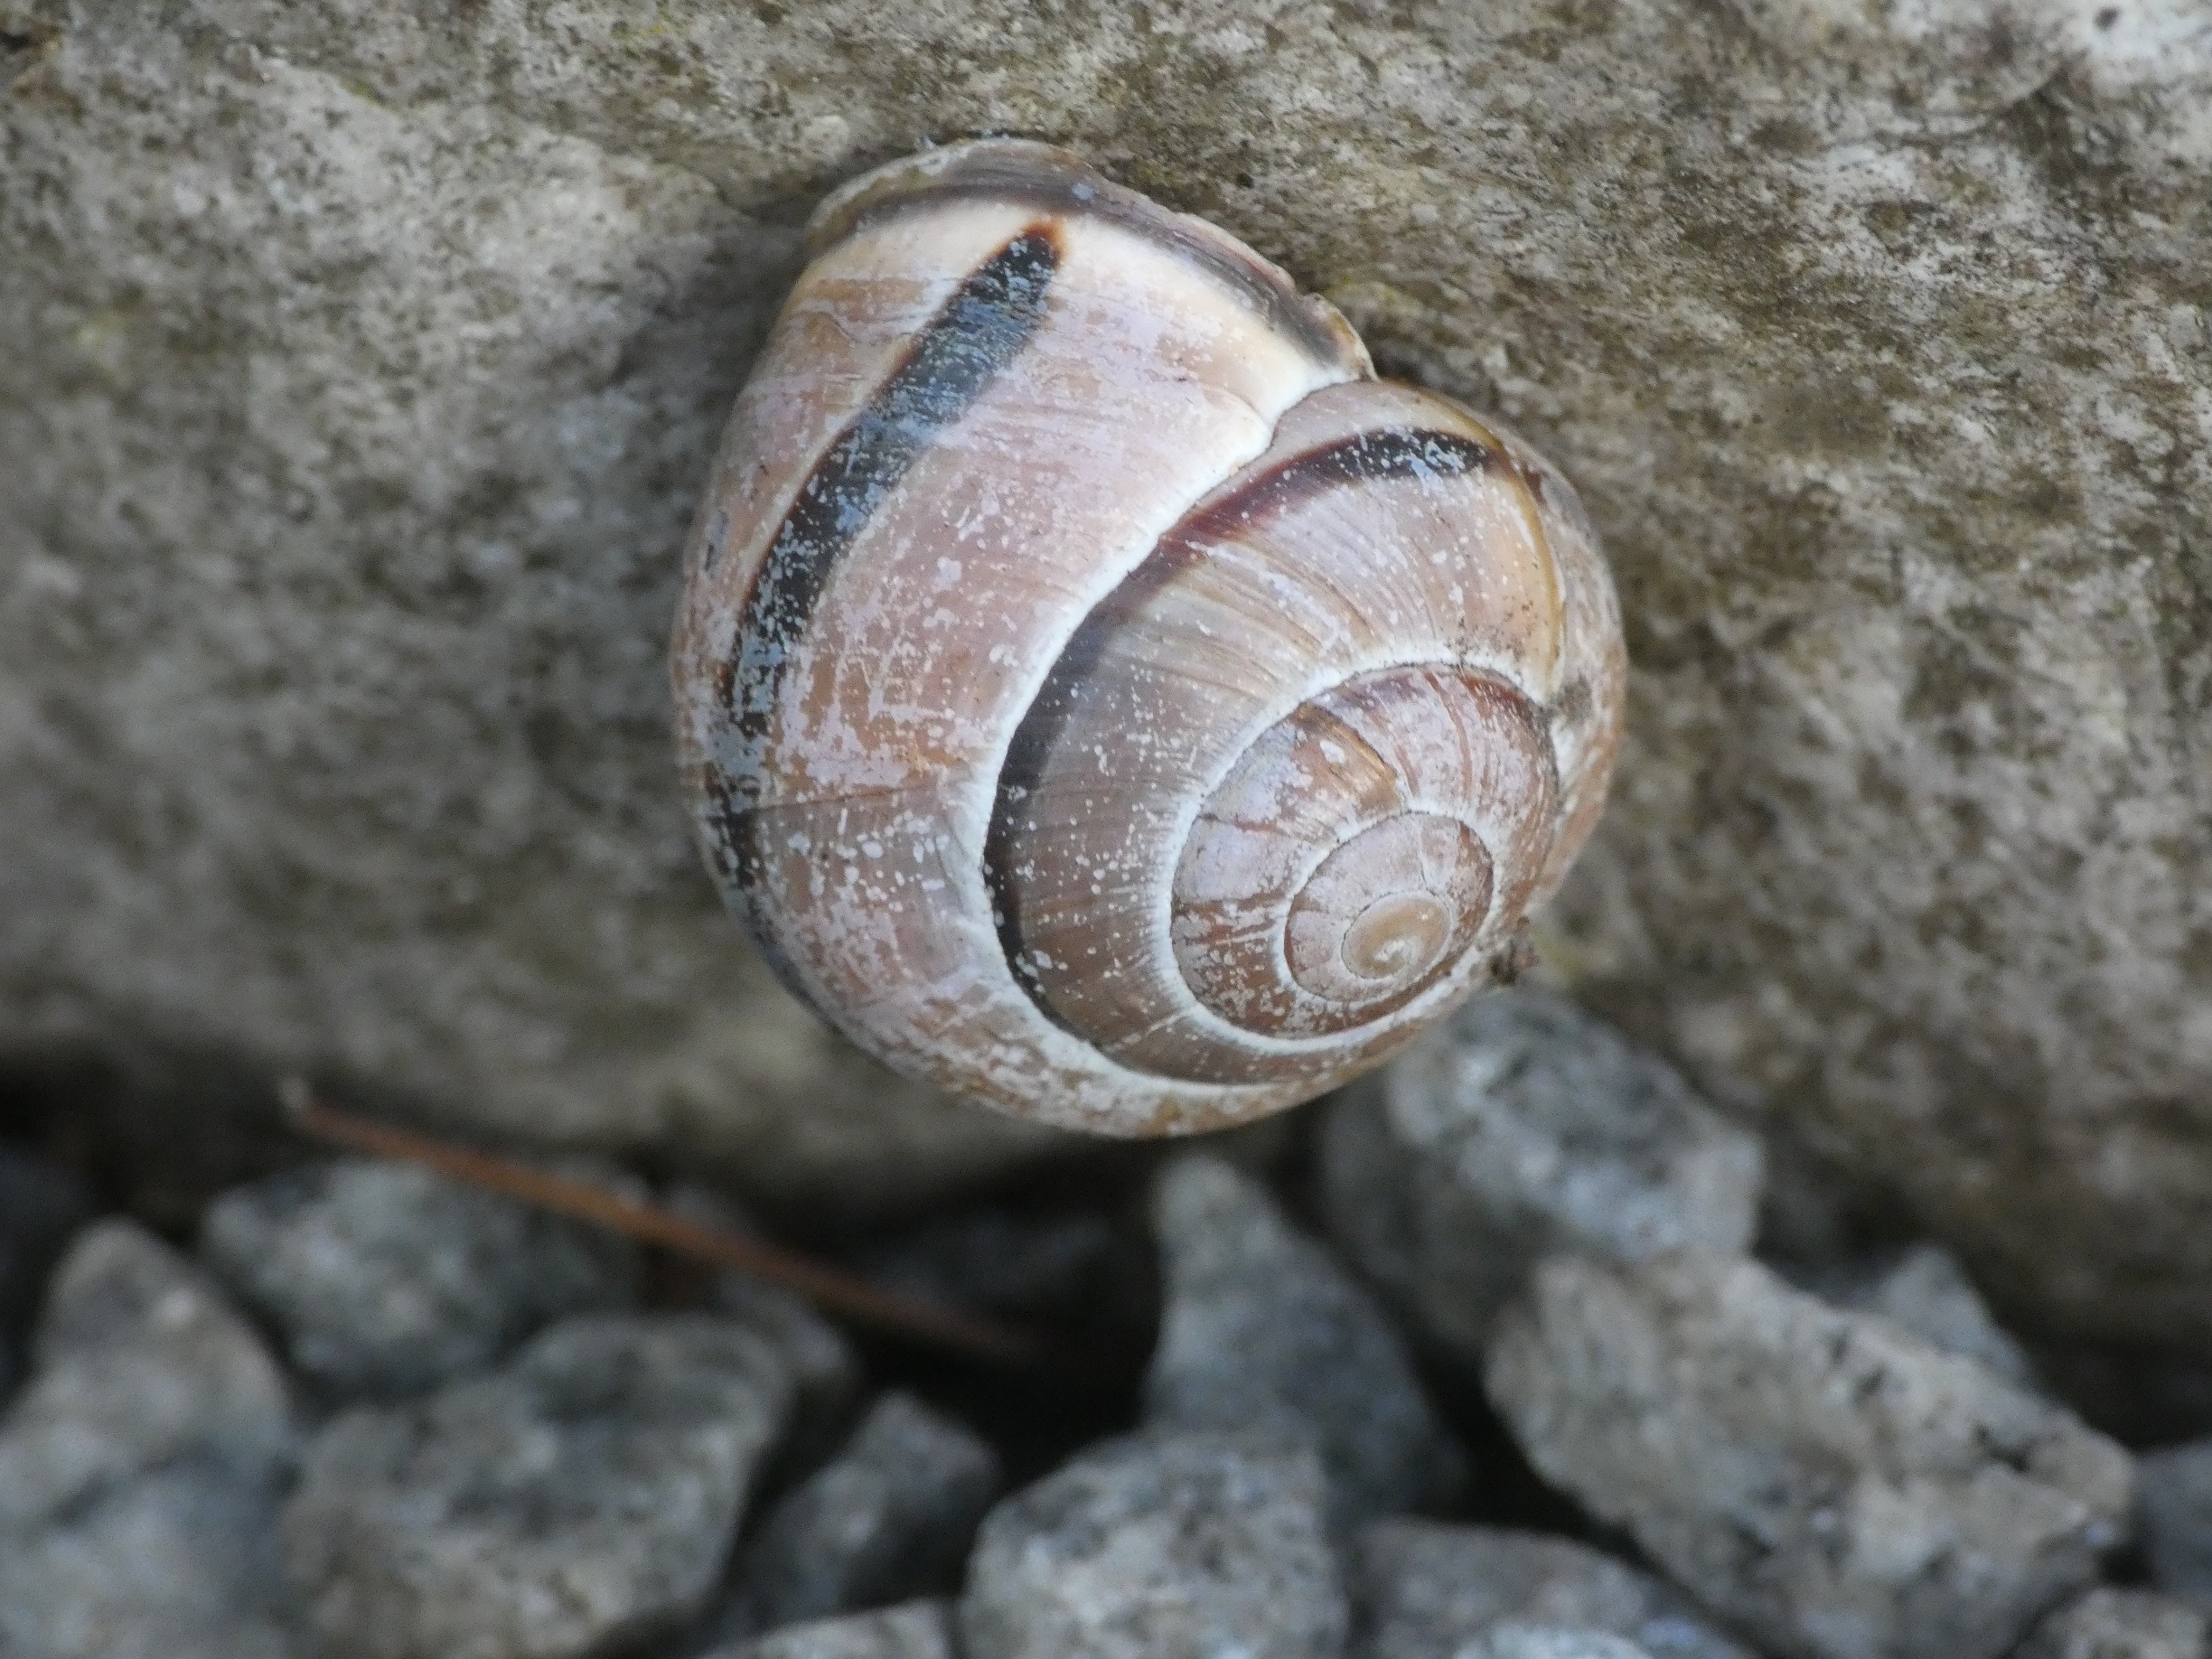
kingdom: Animalia
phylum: Mollusca
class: Gastropoda
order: Stylommatophora
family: Helicidae
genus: Cepaea
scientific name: Cepaea nemoralis
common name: Lundsnegl
